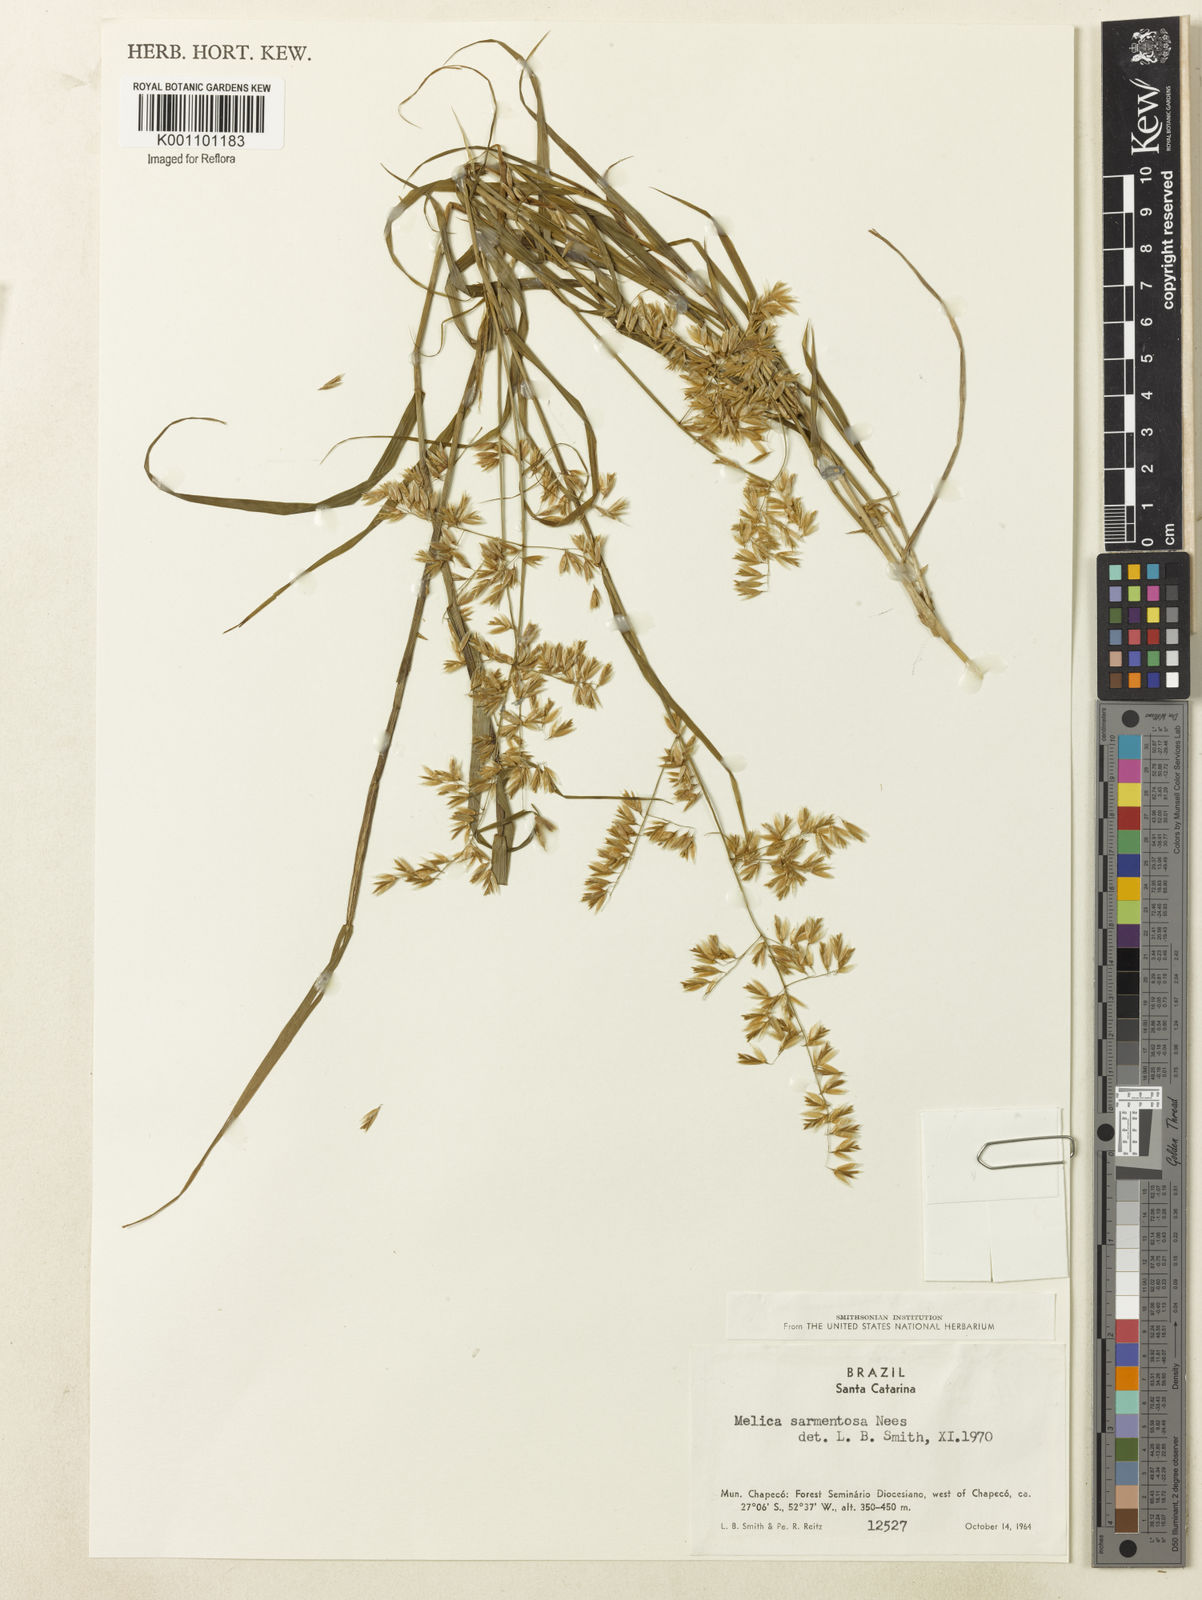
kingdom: Plantae
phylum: Tracheophyta
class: Liliopsida
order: Poales
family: Poaceae
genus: Melica
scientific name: Melica sarmentosa
